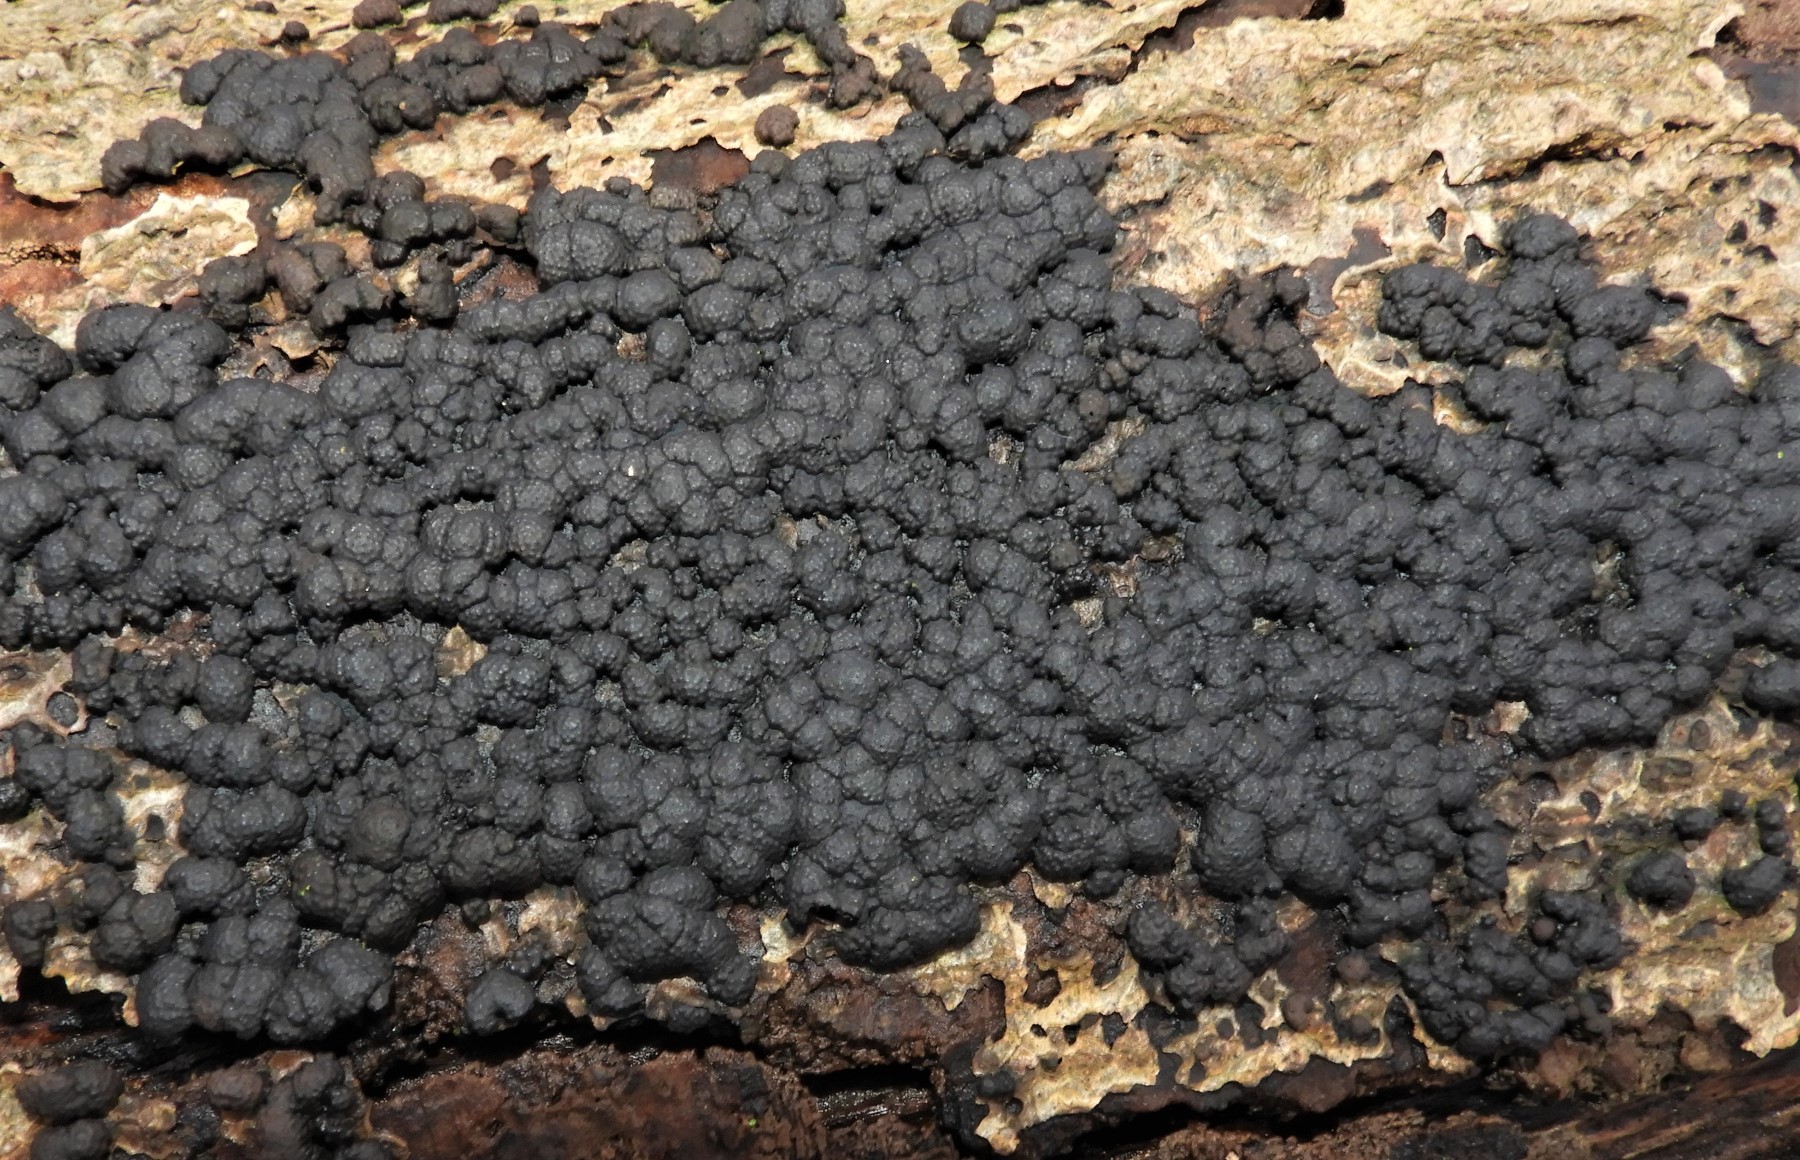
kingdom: Fungi
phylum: Ascomycota
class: Sordariomycetes
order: Xylariales
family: Hypoxylaceae
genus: Jackrogersella
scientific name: Jackrogersella cohaerens
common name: sammenflydende kulbær
